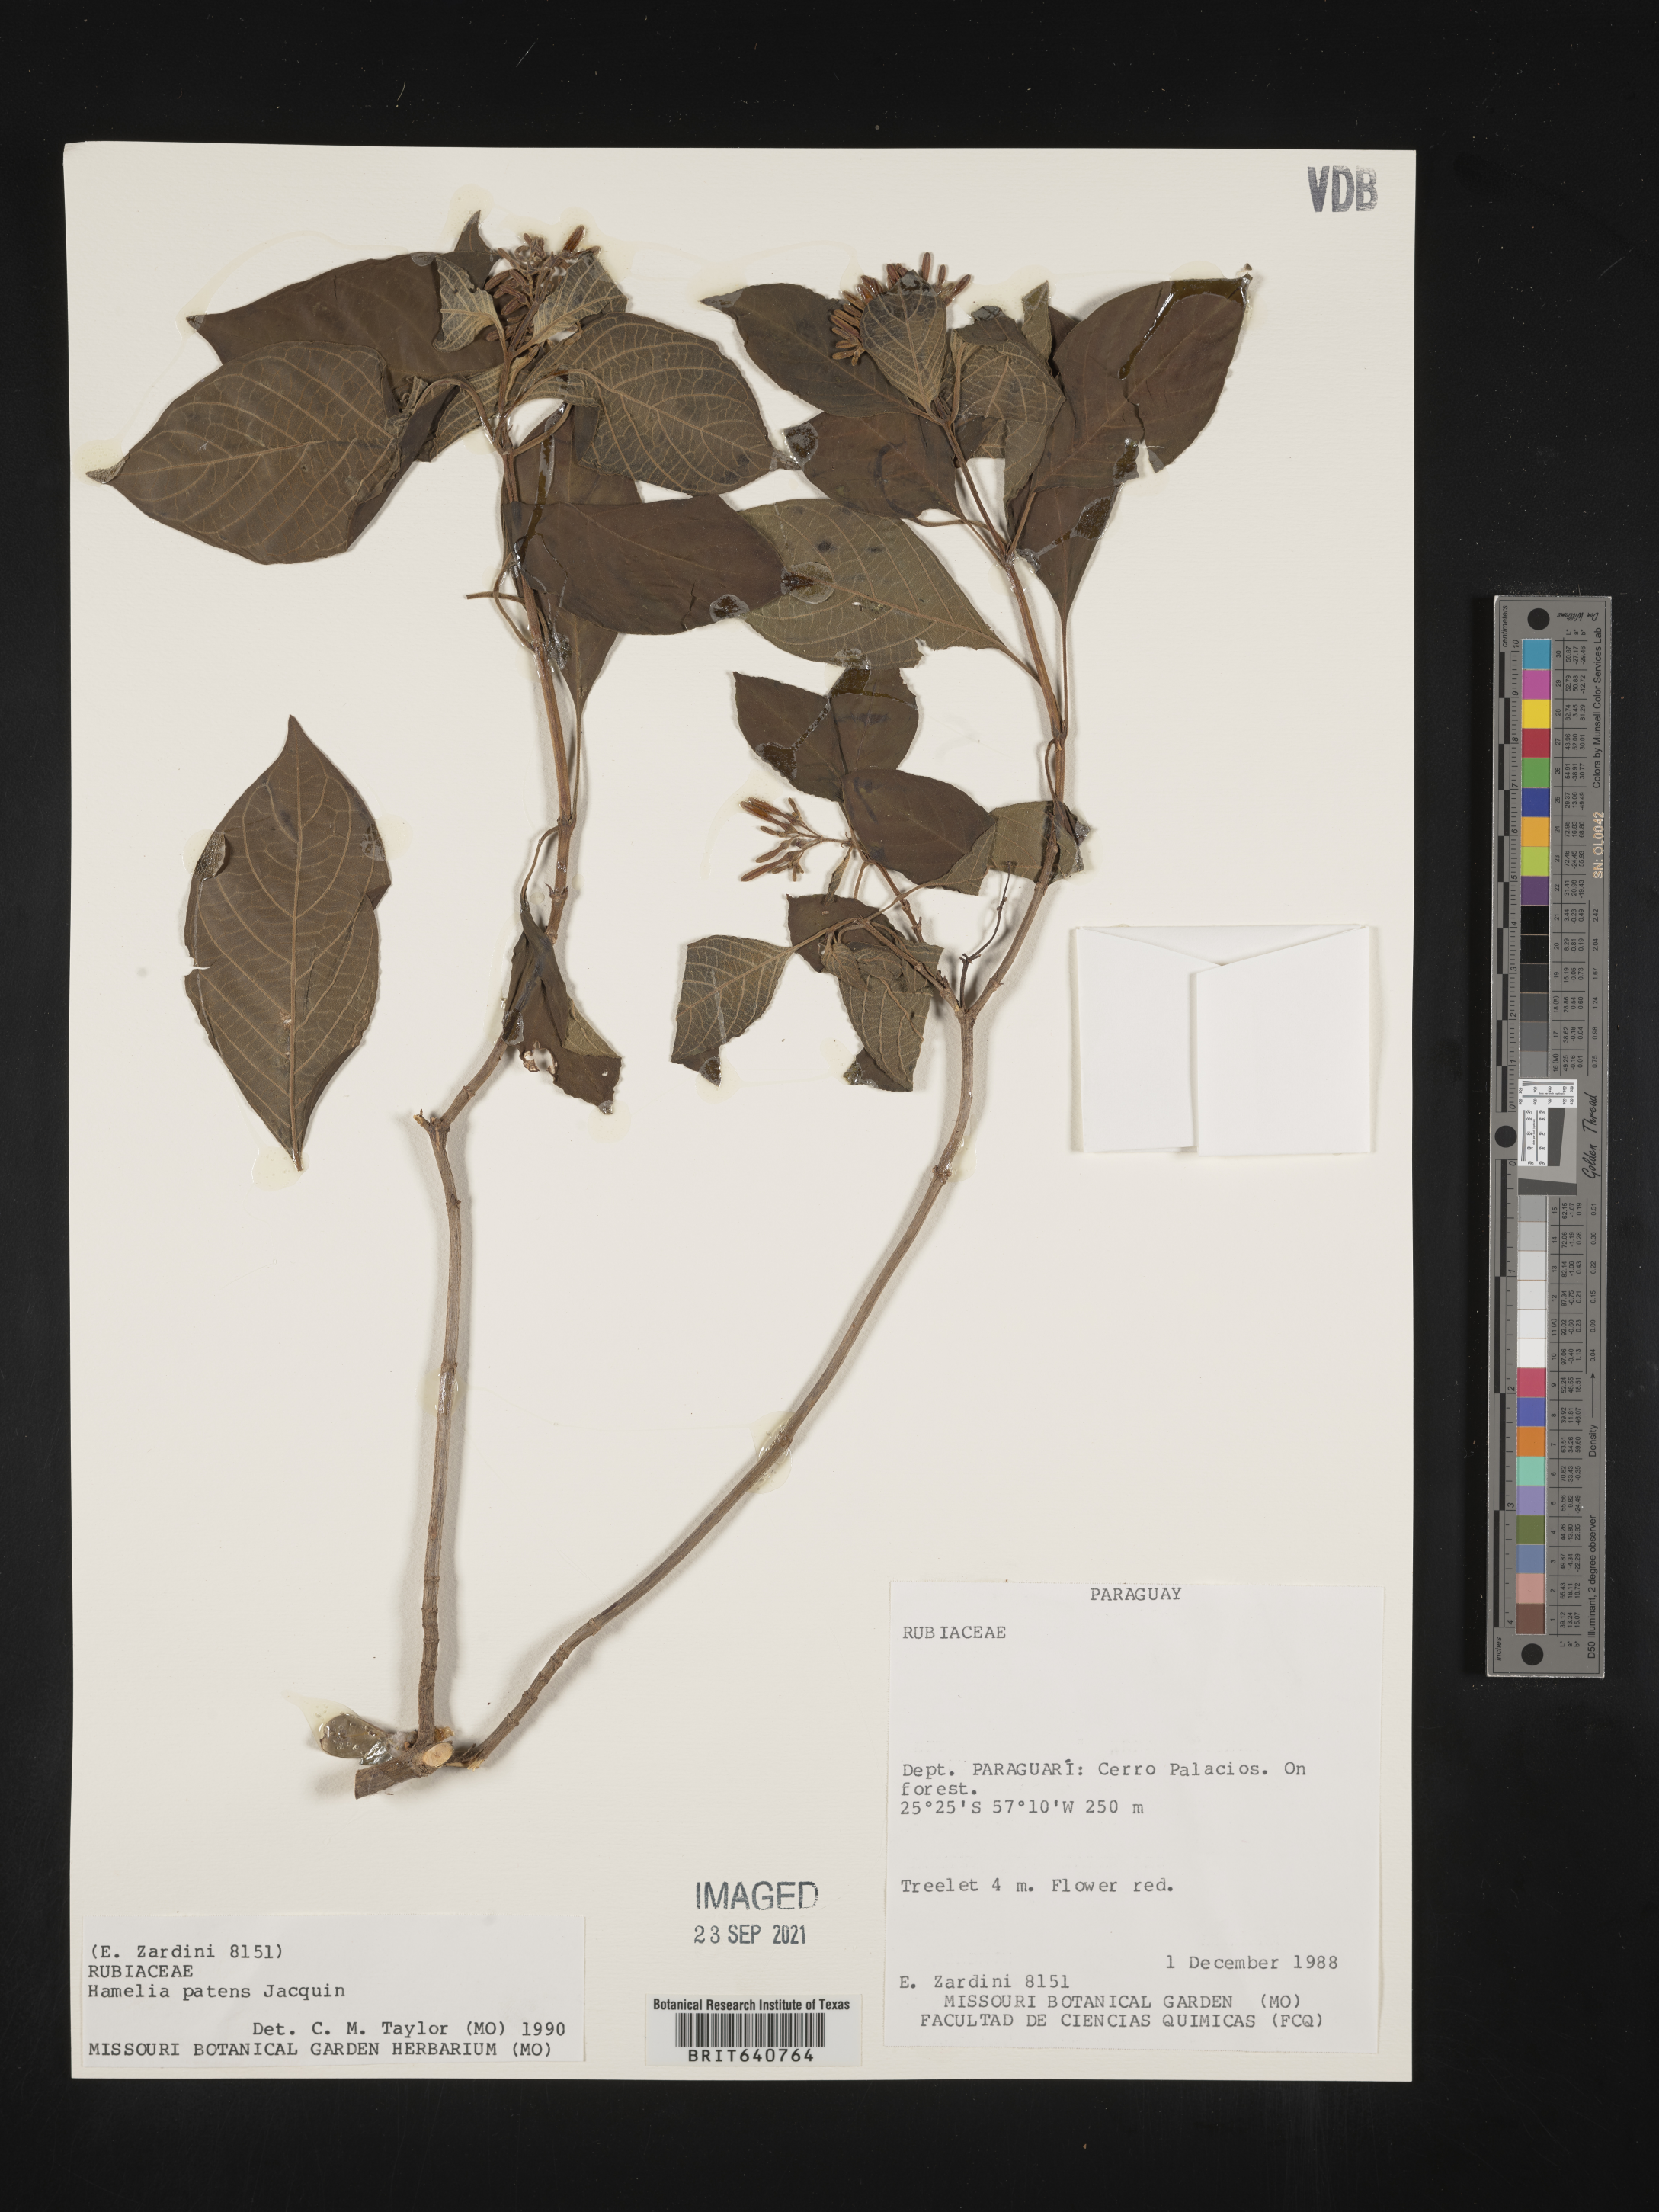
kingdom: Plantae
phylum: Tracheophyta
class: Magnoliopsida
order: Gentianales
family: Rubiaceae
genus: Hamelia
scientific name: Hamelia
